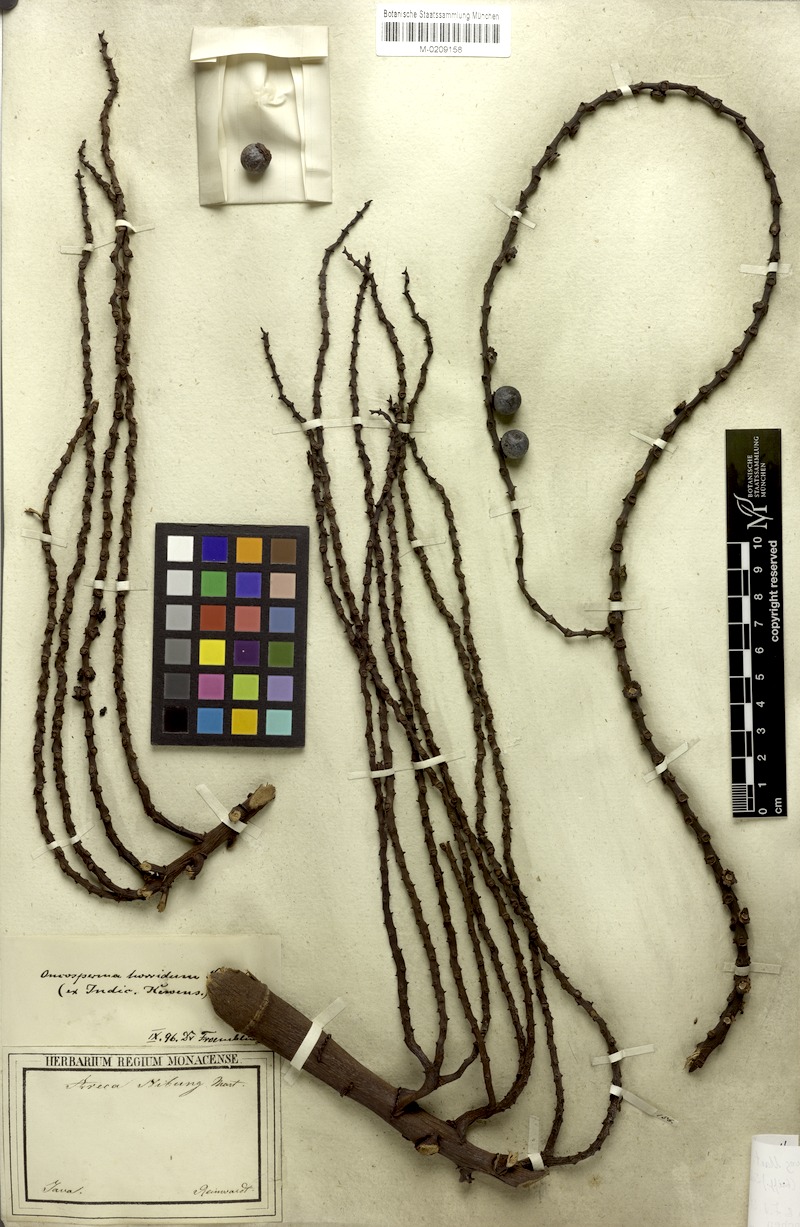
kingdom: Plantae
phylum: Tracheophyta
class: Liliopsida
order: Arecales
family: Arecaceae
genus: Oncosperma
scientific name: Oncosperma horridum
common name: Thorny palm
